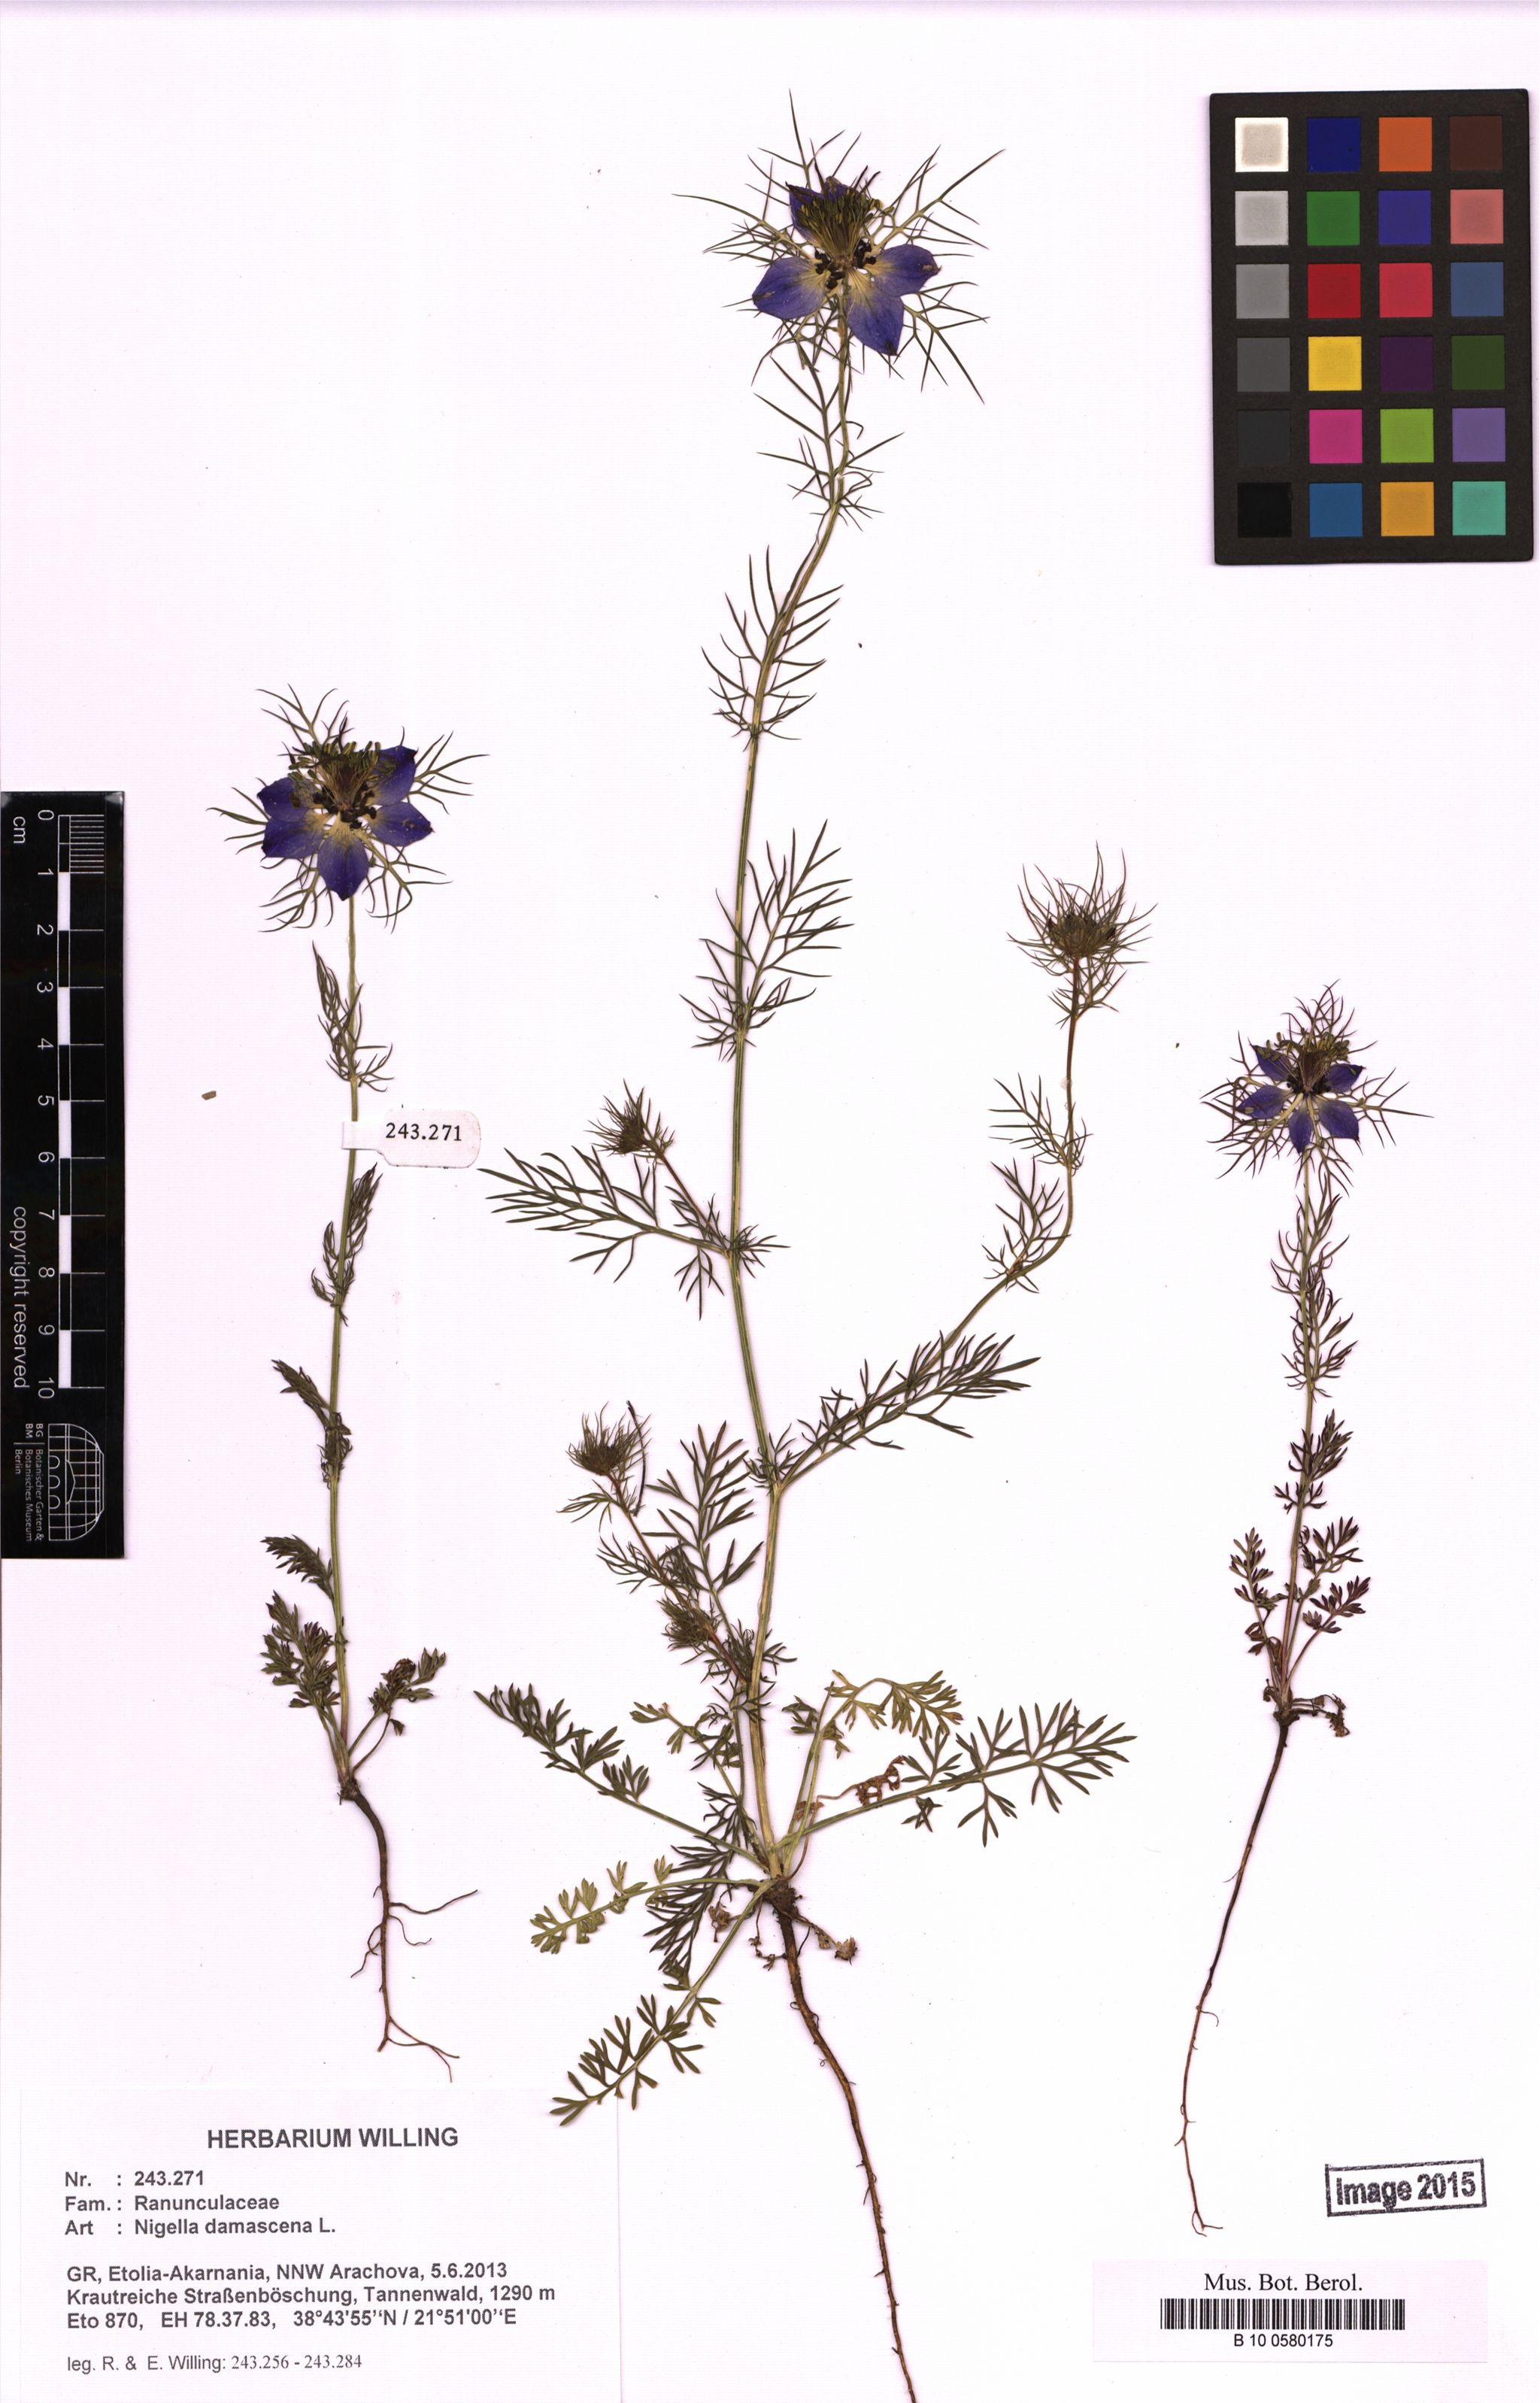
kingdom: Plantae
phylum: Tracheophyta
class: Magnoliopsida
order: Ranunculales
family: Ranunculaceae
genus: Nigella
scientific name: Nigella damascena
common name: Love-in-a-mist
